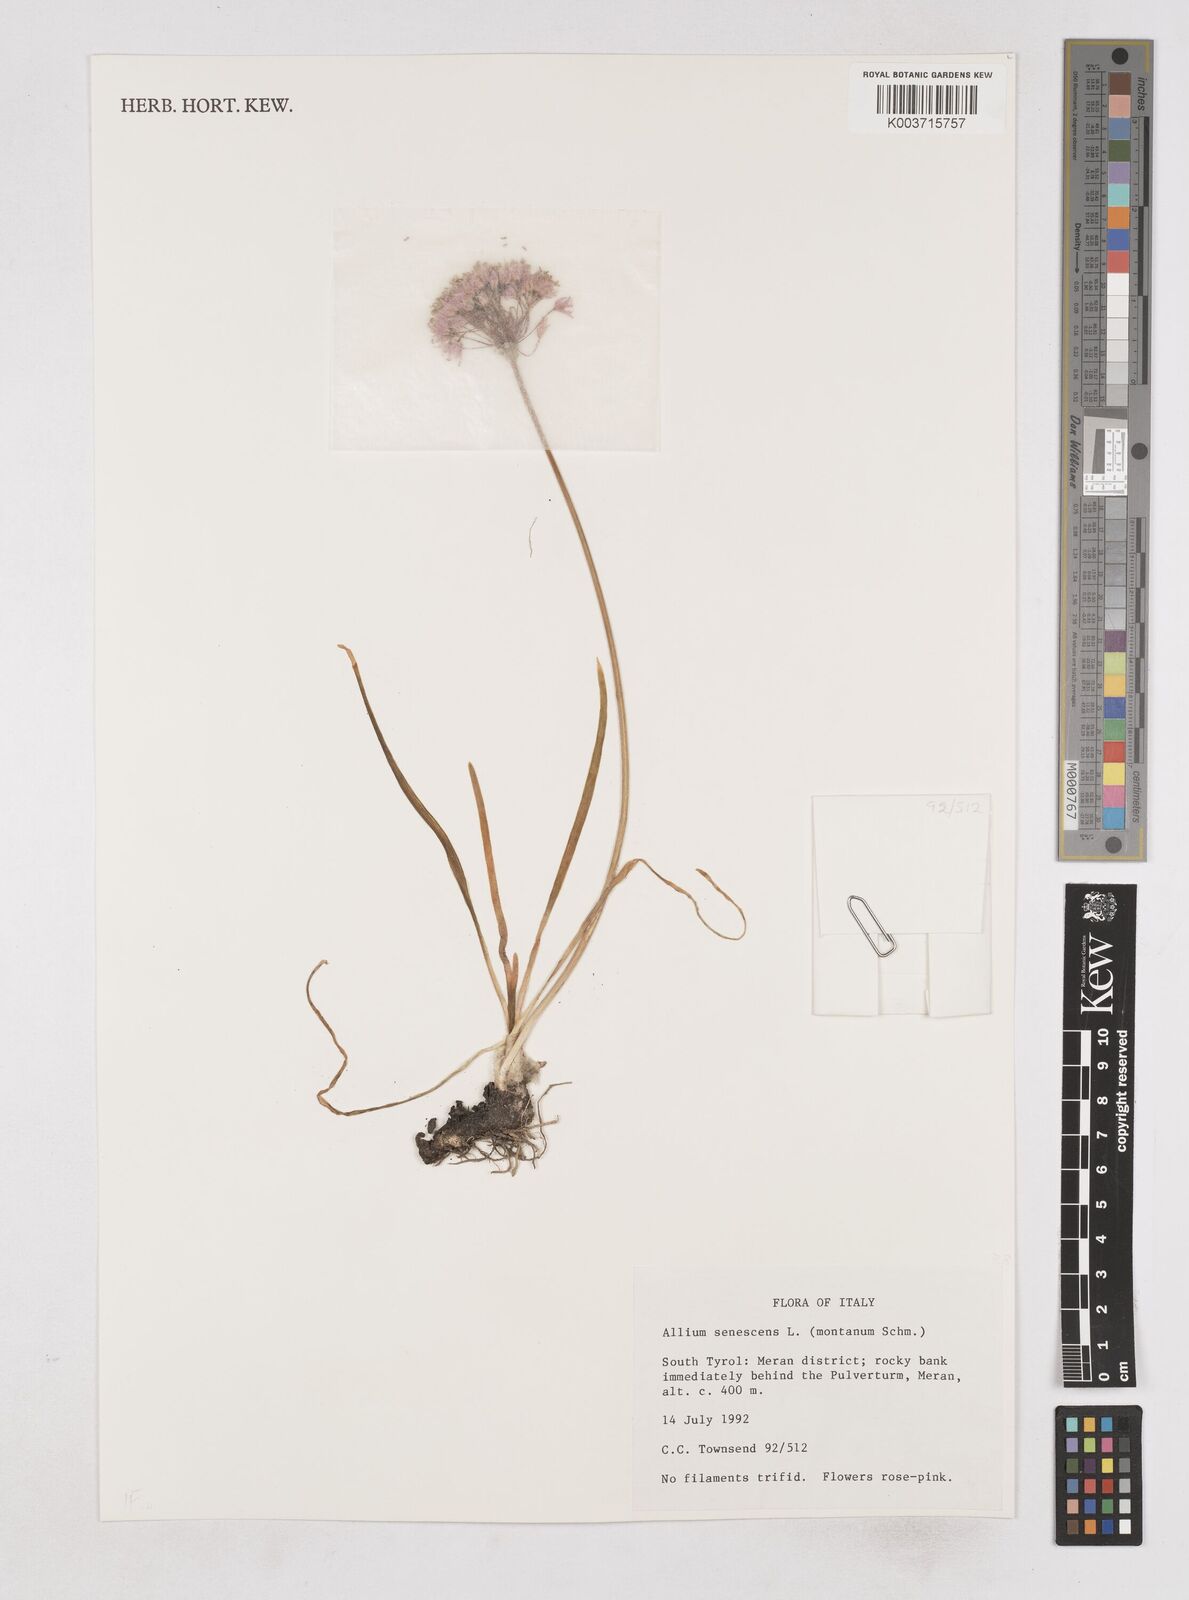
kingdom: Plantae
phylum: Tracheophyta
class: Liliopsida
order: Asparagales
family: Amaryllidaceae
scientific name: Amaryllidaceae
